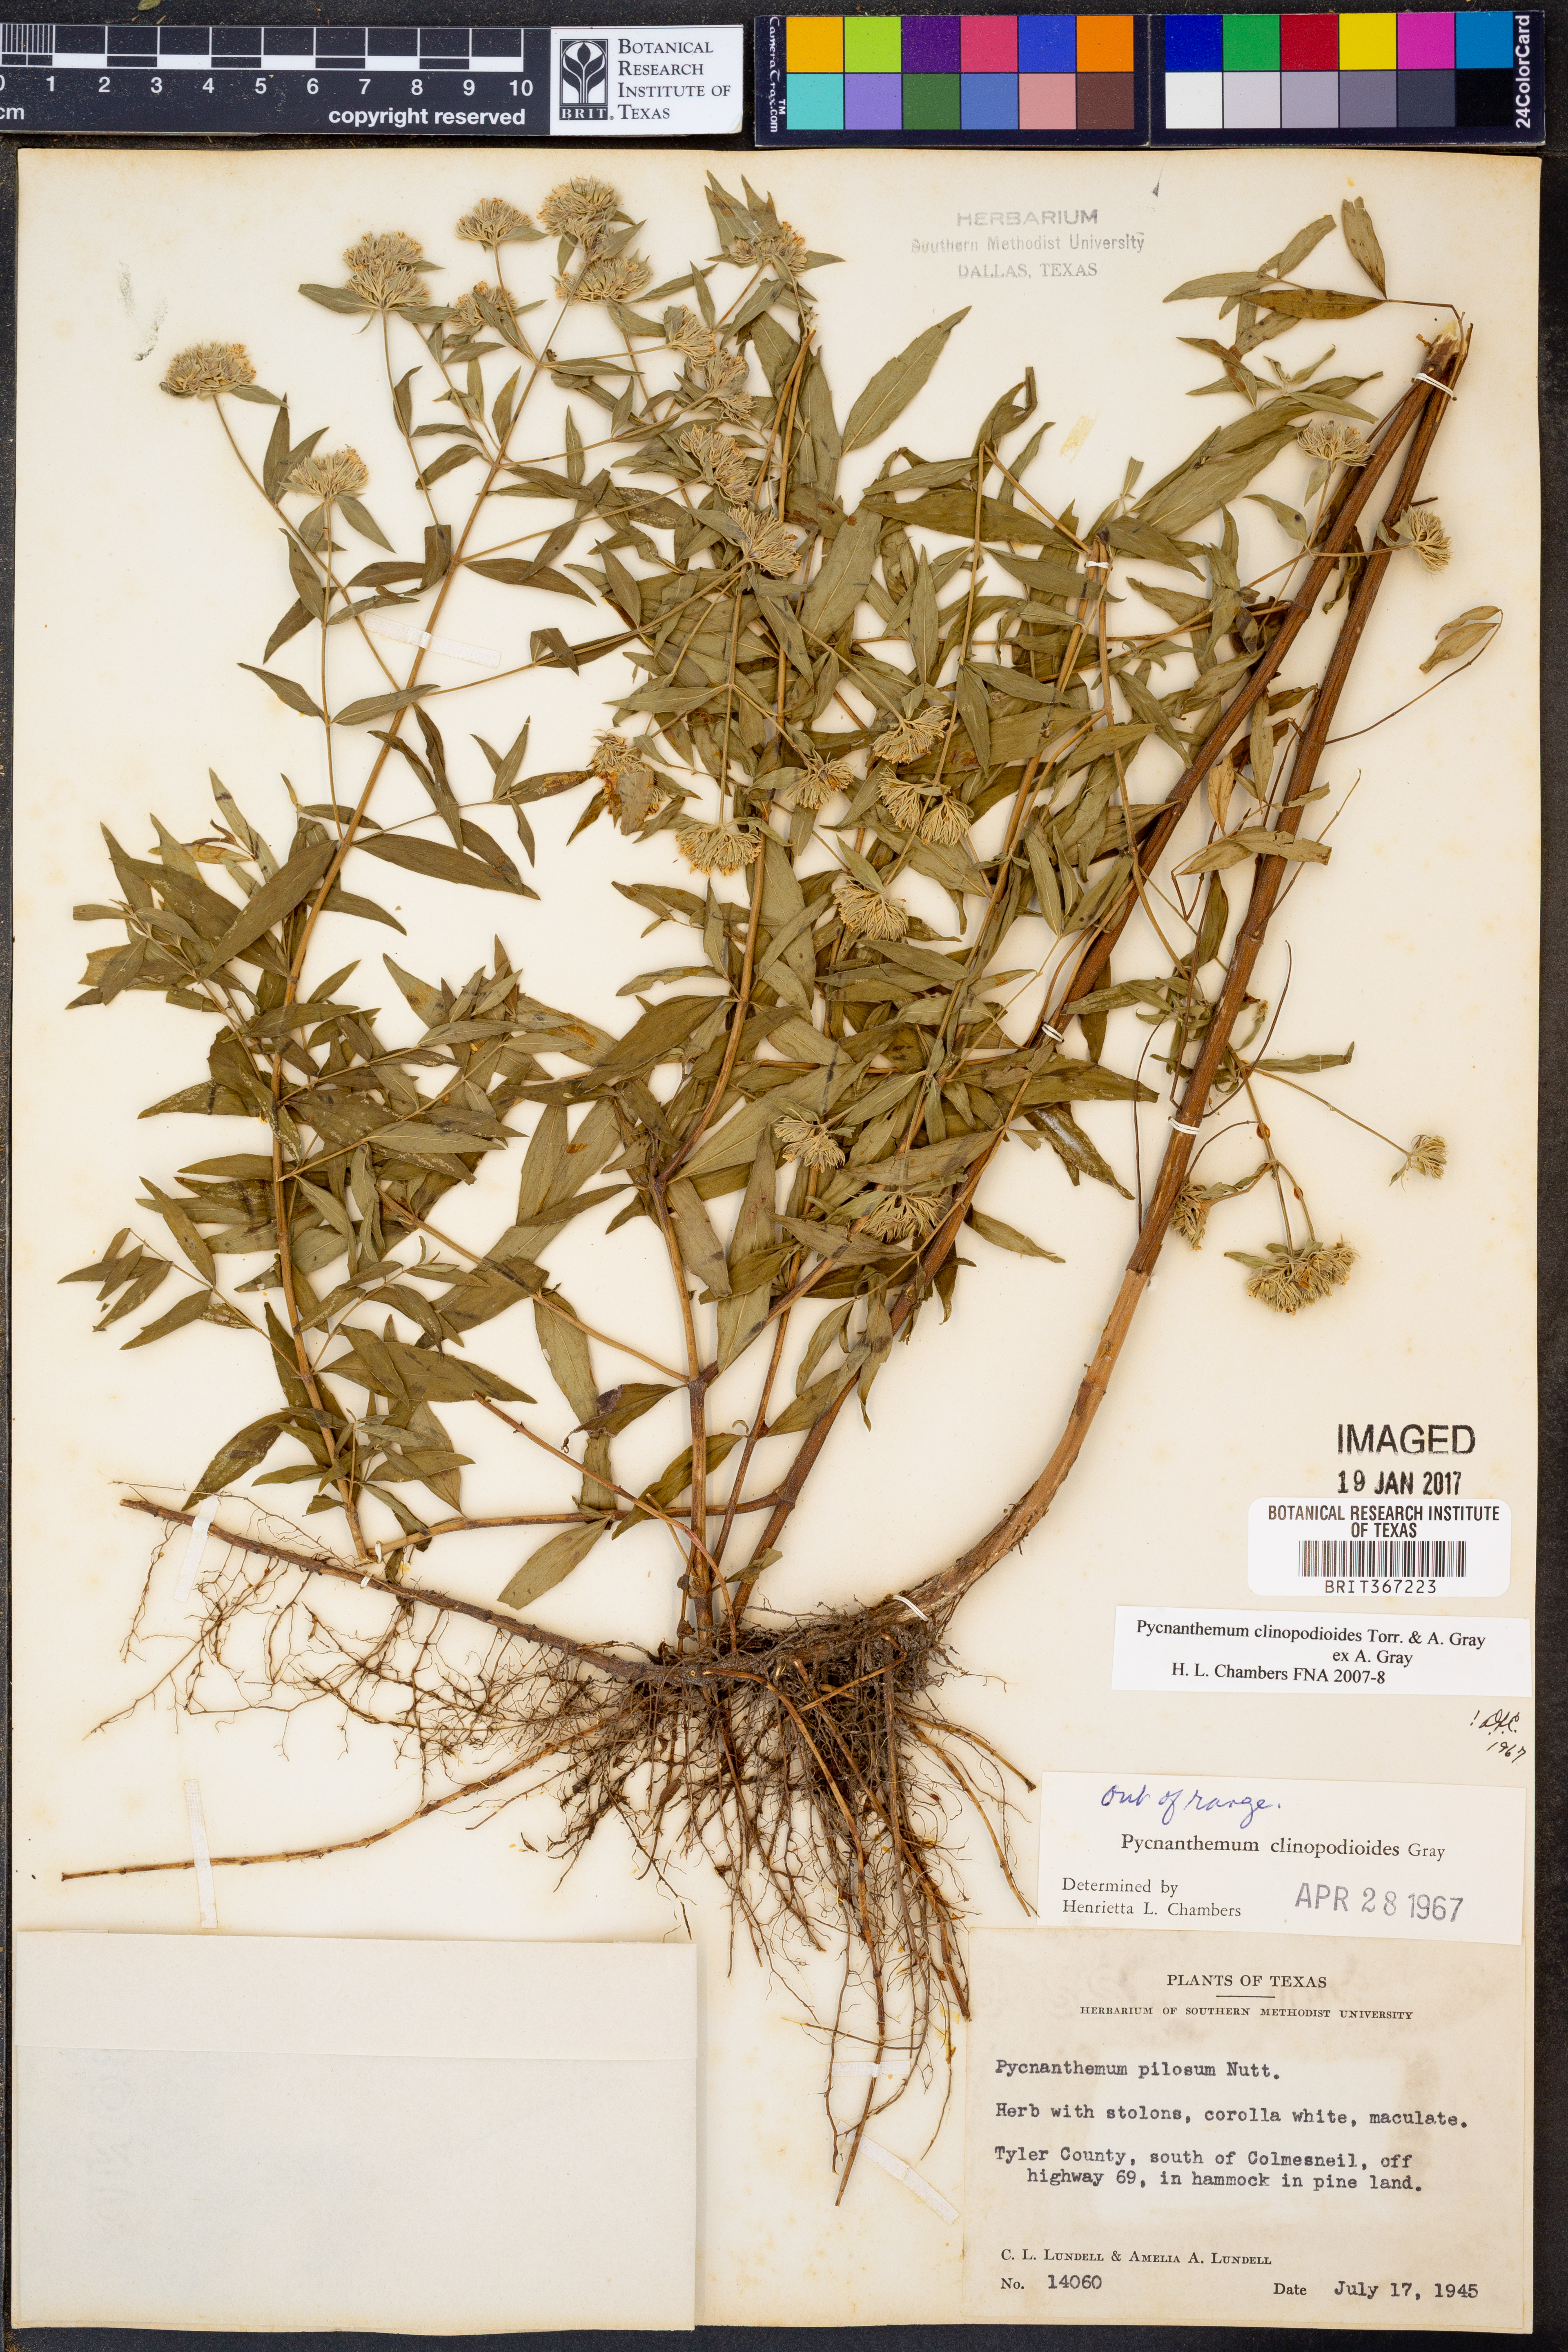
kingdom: Plantae
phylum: Tracheophyta
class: Magnoliopsida
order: Lamiales
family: Lamiaceae
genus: Pycnanthemum
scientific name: Pycnanthemum clinopodioides
